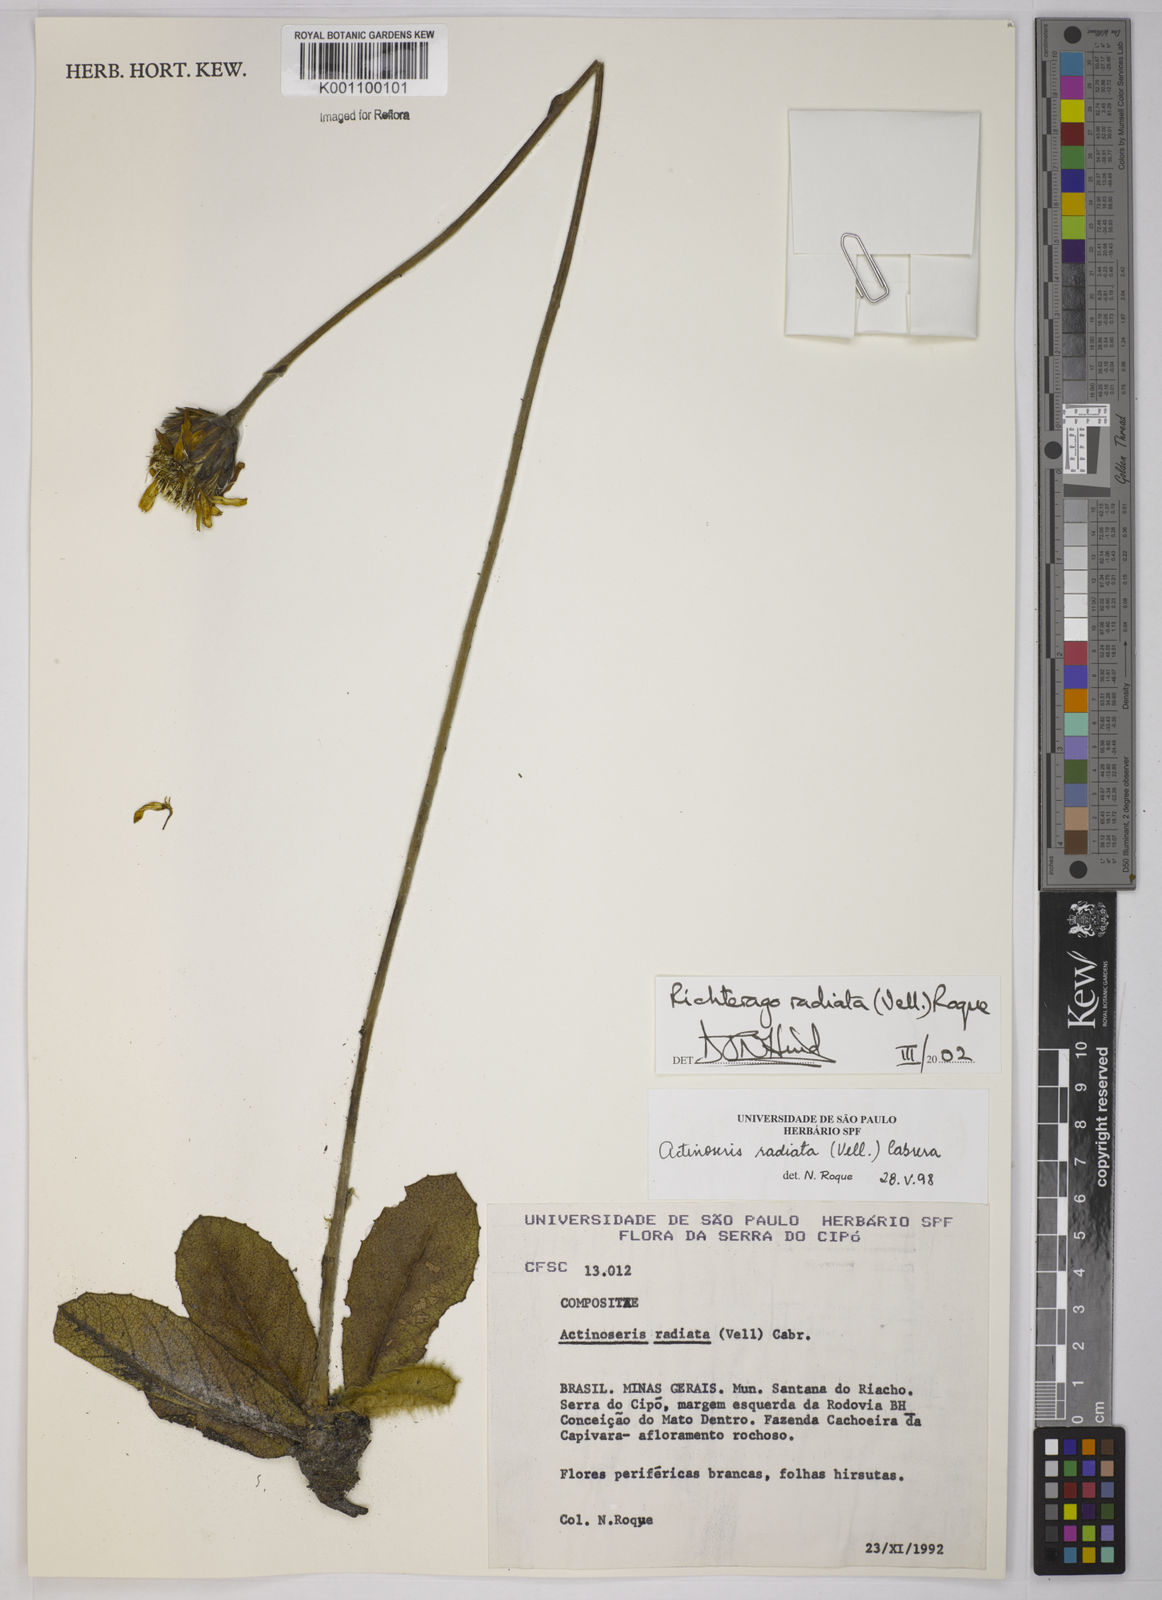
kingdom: Plantae
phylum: Tracheophyta
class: Magnoliopsida
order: Asterales
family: Asteraceae
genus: Richterago
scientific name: Richterago radiata
